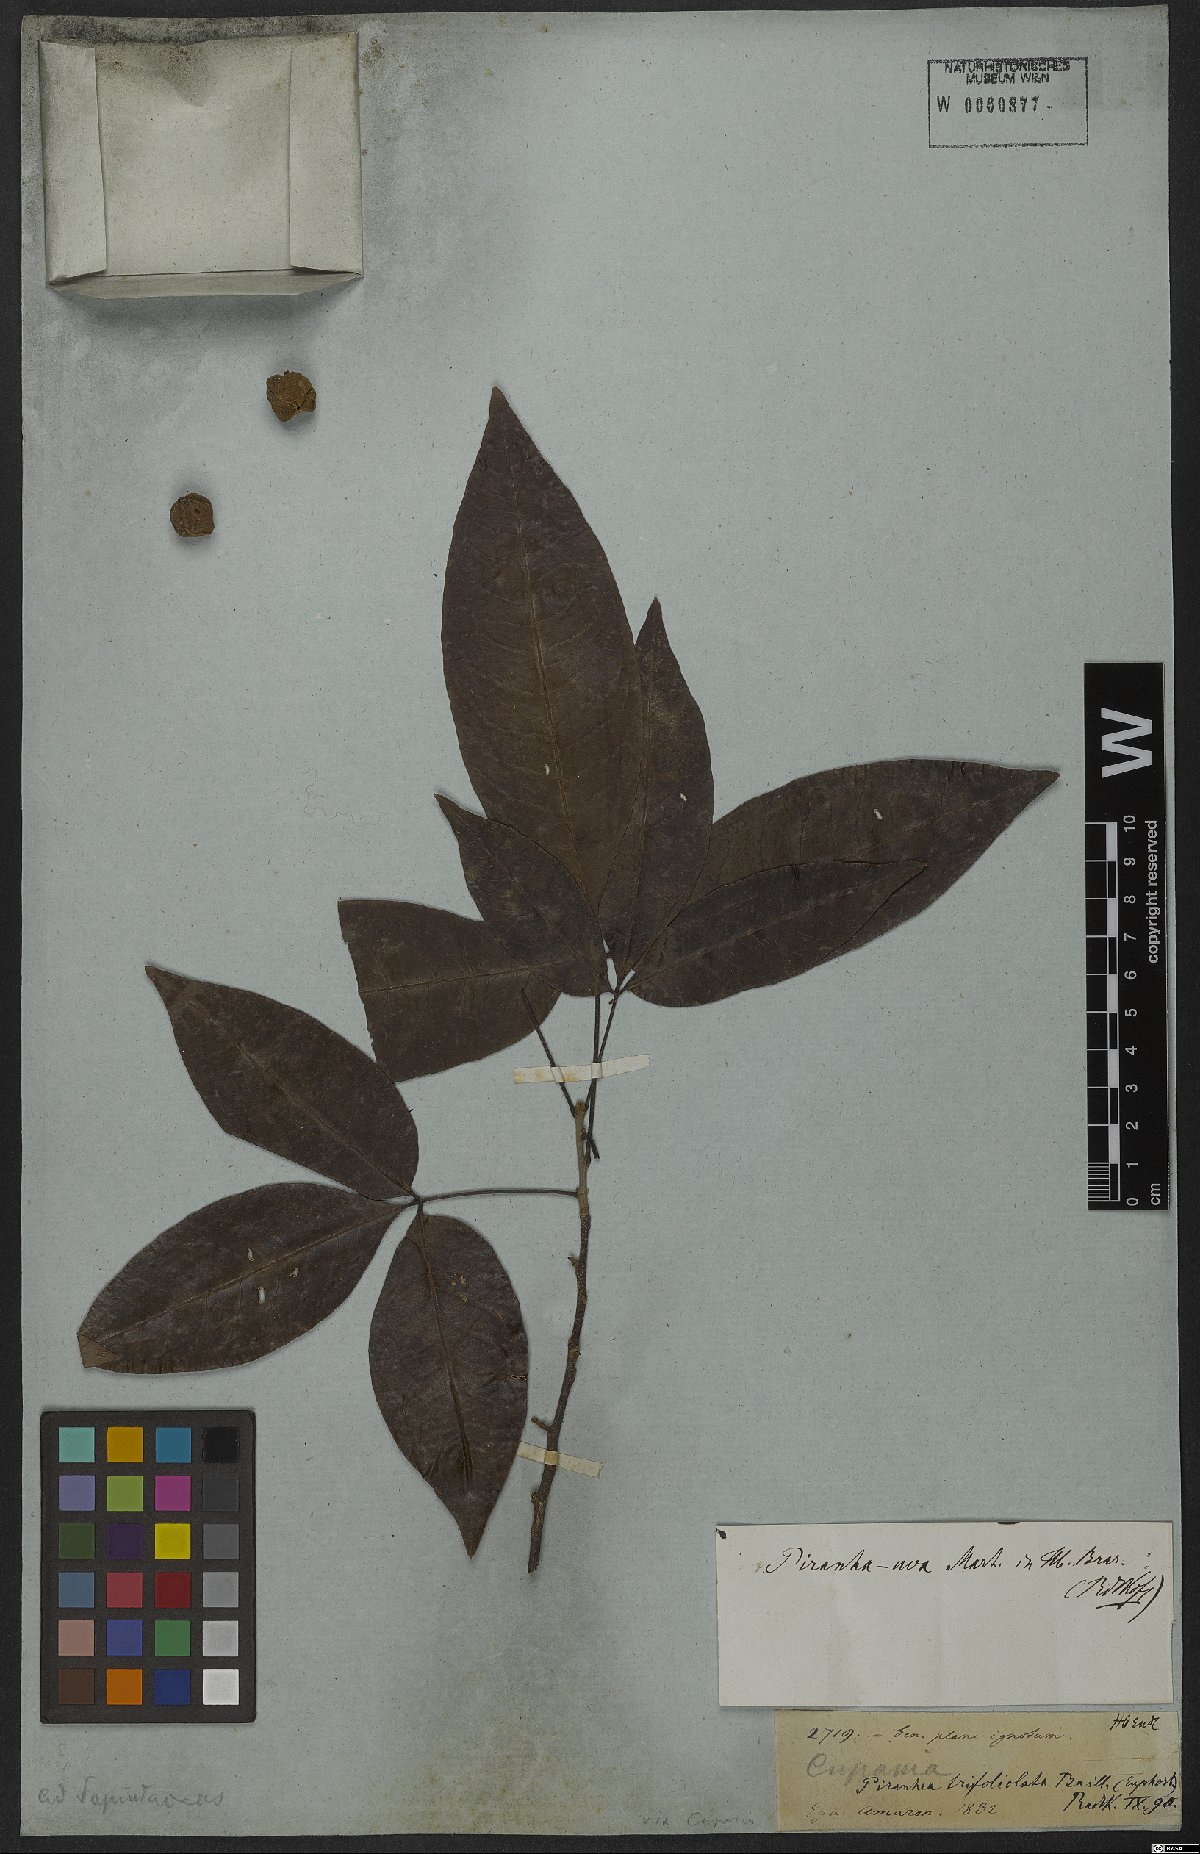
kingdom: Plantae
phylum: Tracheophyta
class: Magnoliopsida
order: Malpighiales
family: Picrodendraceae
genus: Piranhea
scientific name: Piranhea trifoliata
